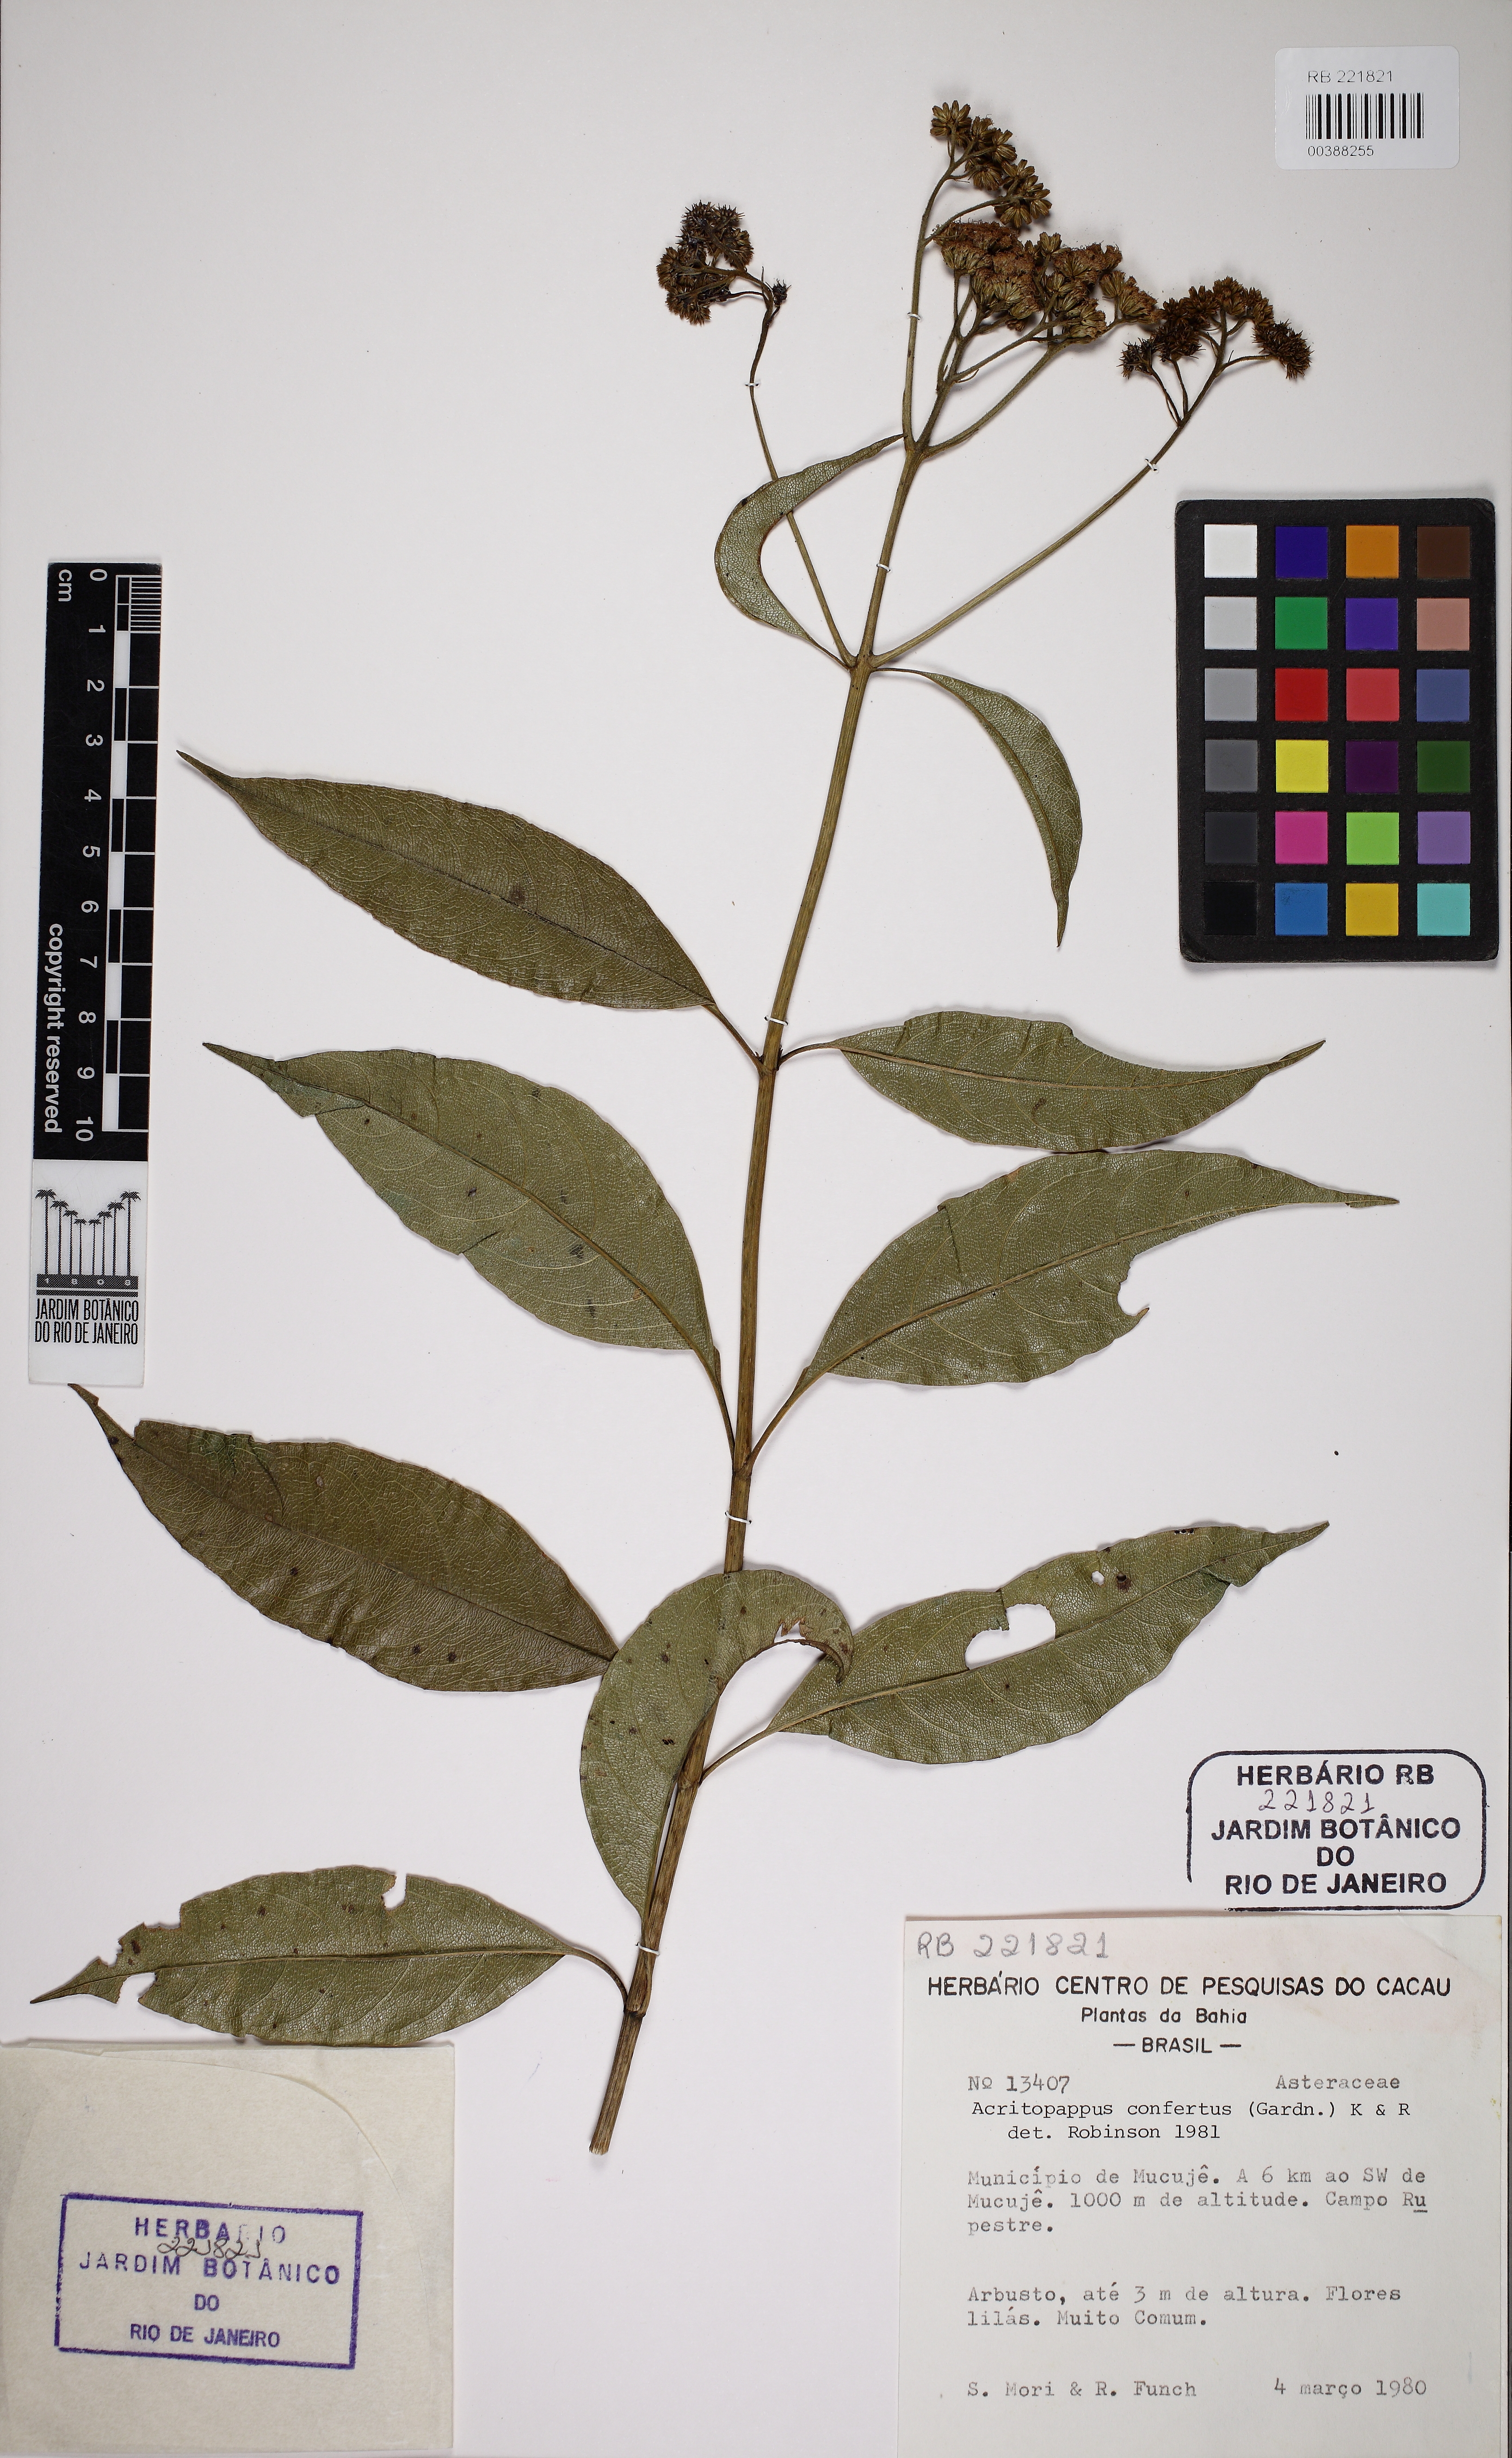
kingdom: Plantae
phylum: Tracheophyta
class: Magnoliopsida
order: Asterales
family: Asteraceae
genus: Acritopappus
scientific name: Acritopappus confertus
